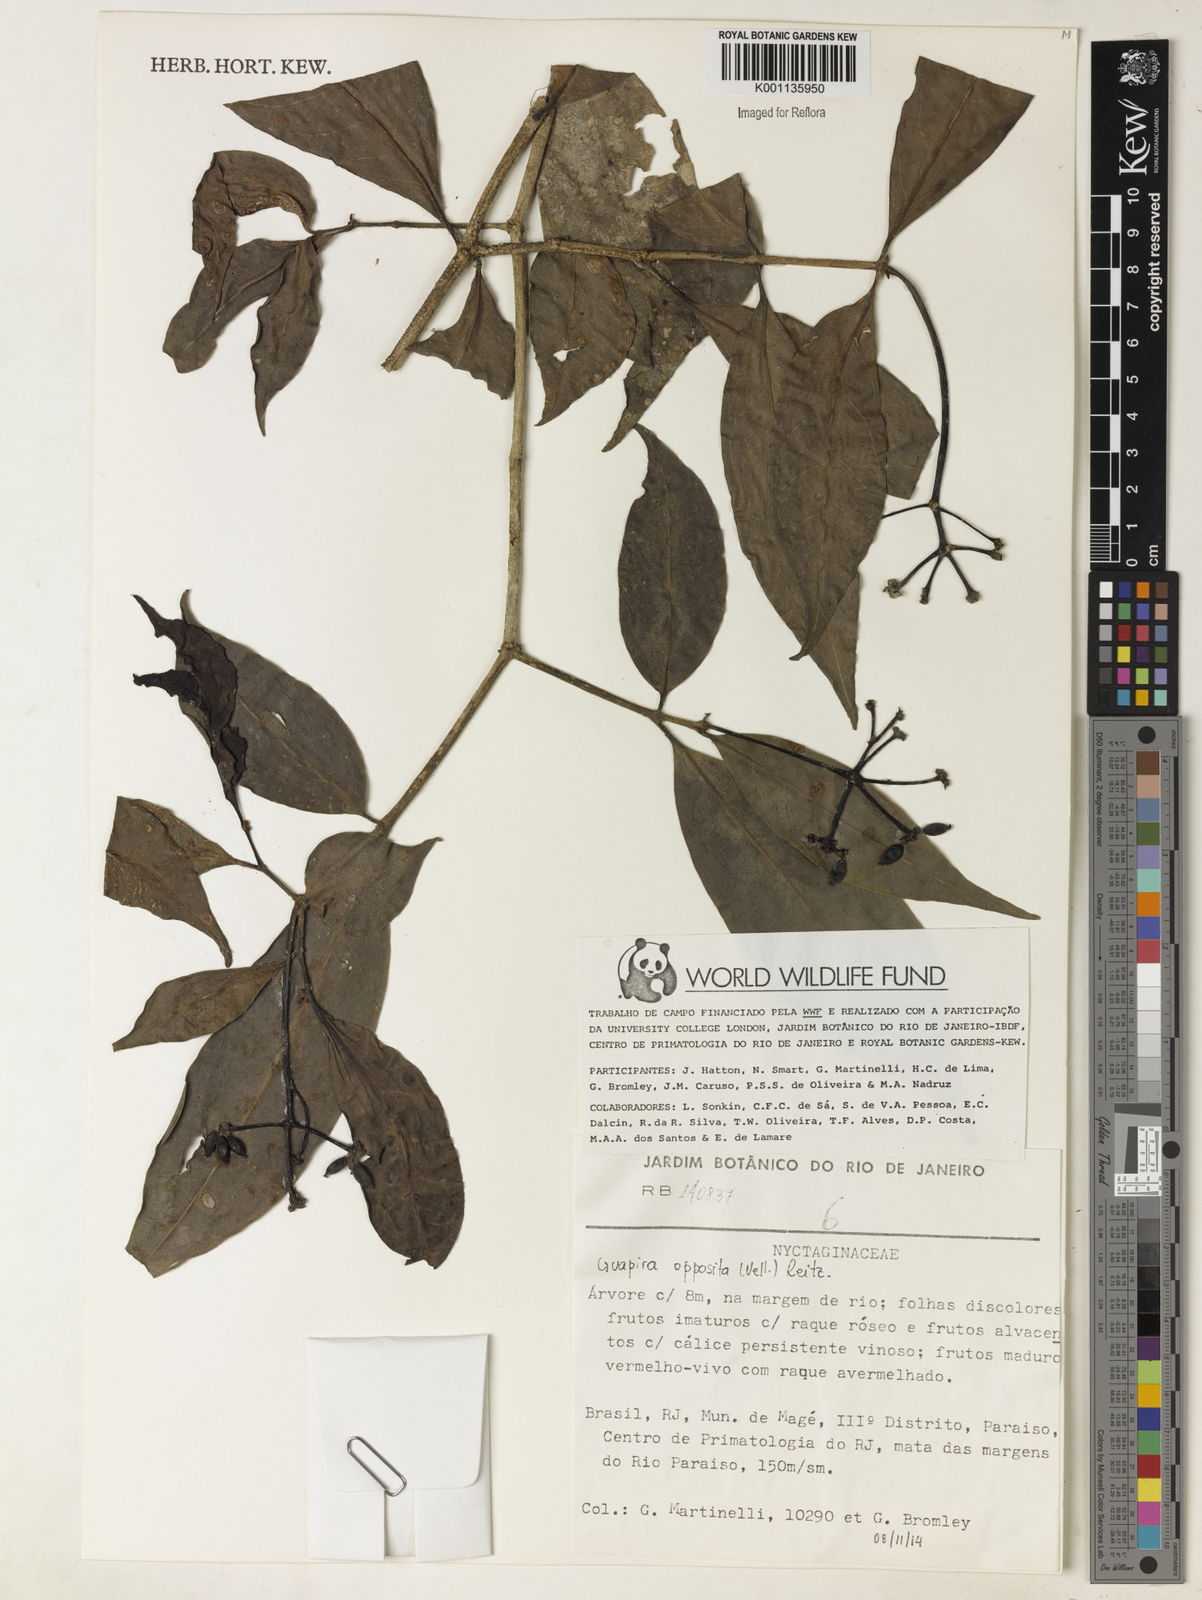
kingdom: Plantae
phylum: Tracheophyta
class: Magnoliopsida
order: Caryophyllales
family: Nyctaginaceae
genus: Guapira
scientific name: Guapira opposita
